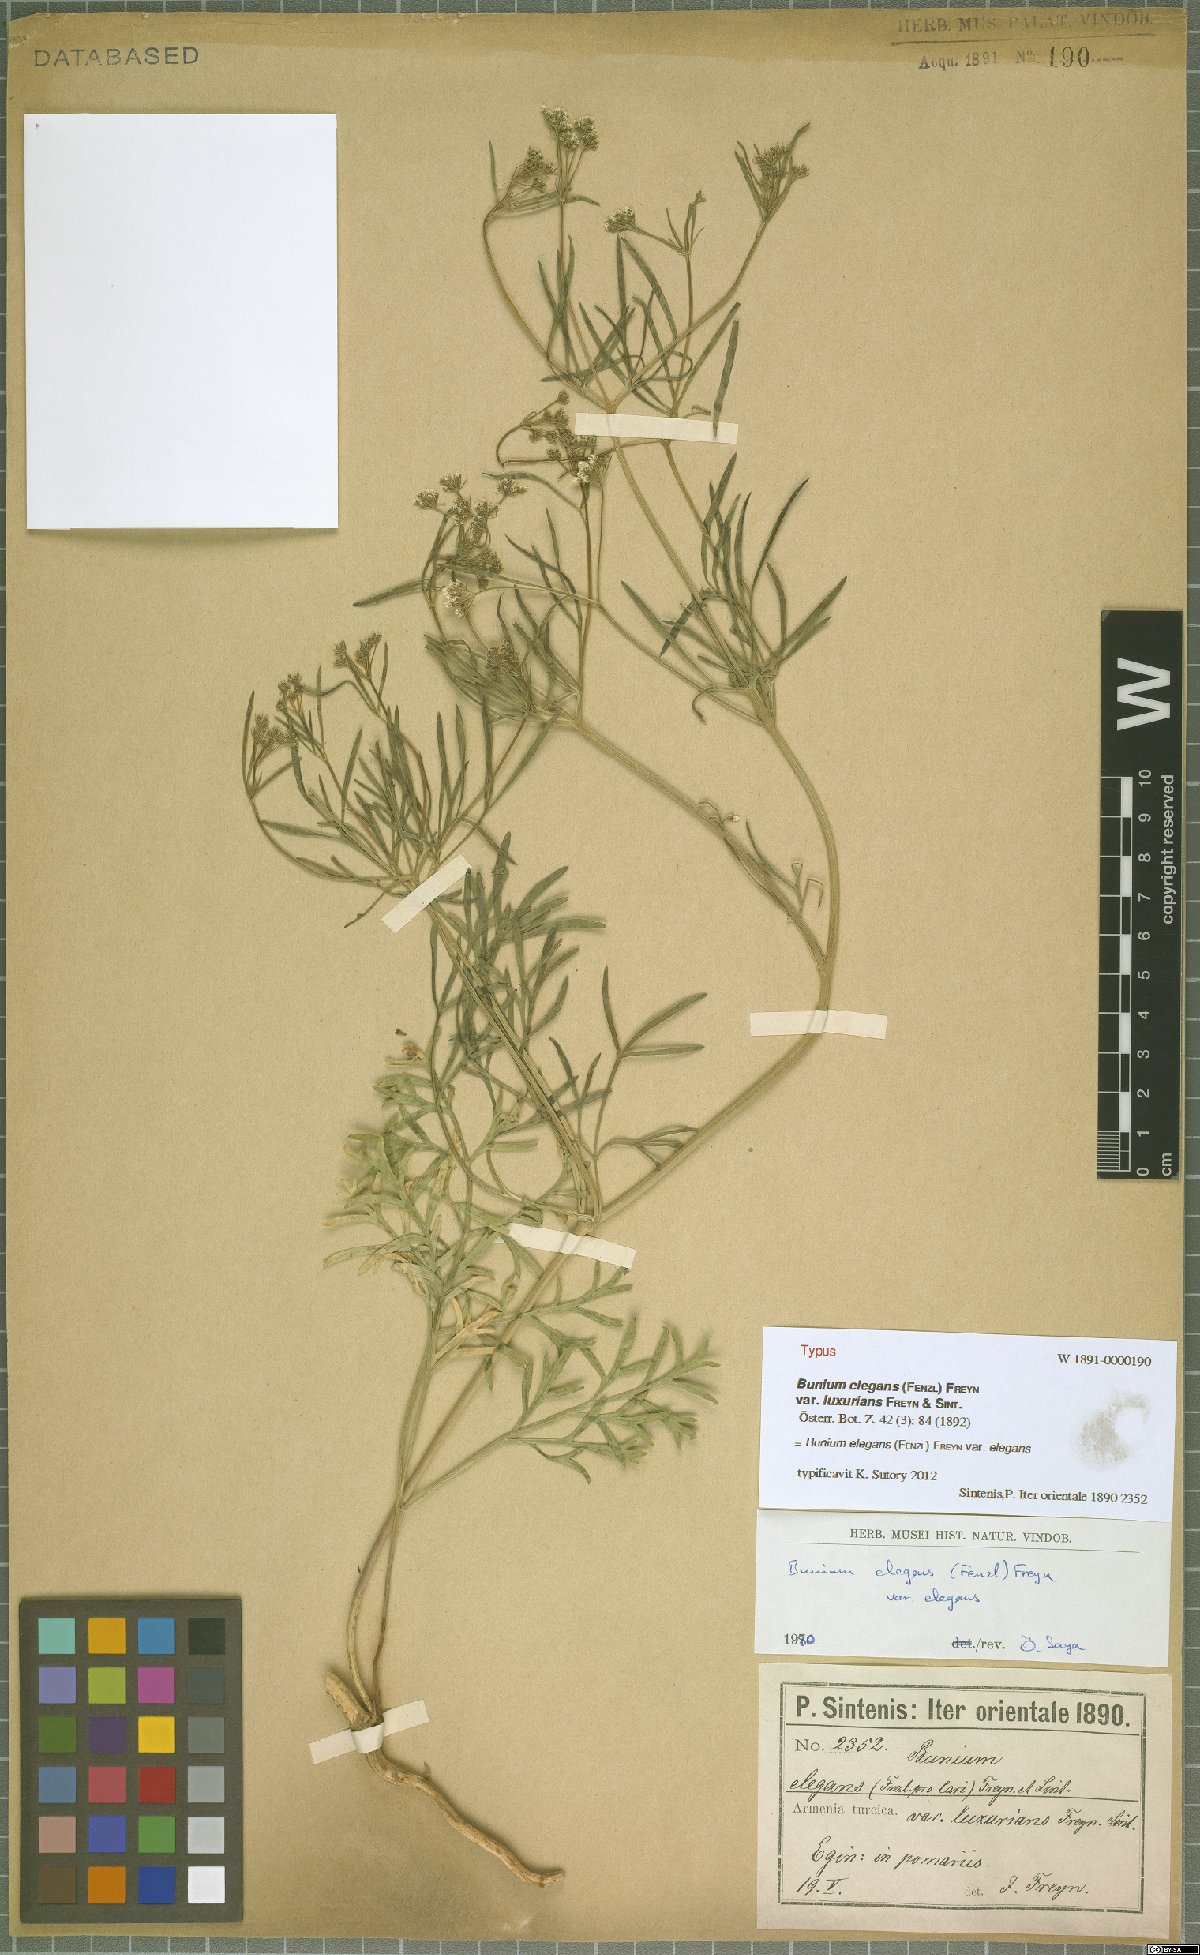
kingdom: Plantae
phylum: Tracheophyta
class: Magnoliopsida
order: Apiales
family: Apiaceae
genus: Bunium
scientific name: Bunium elegans
